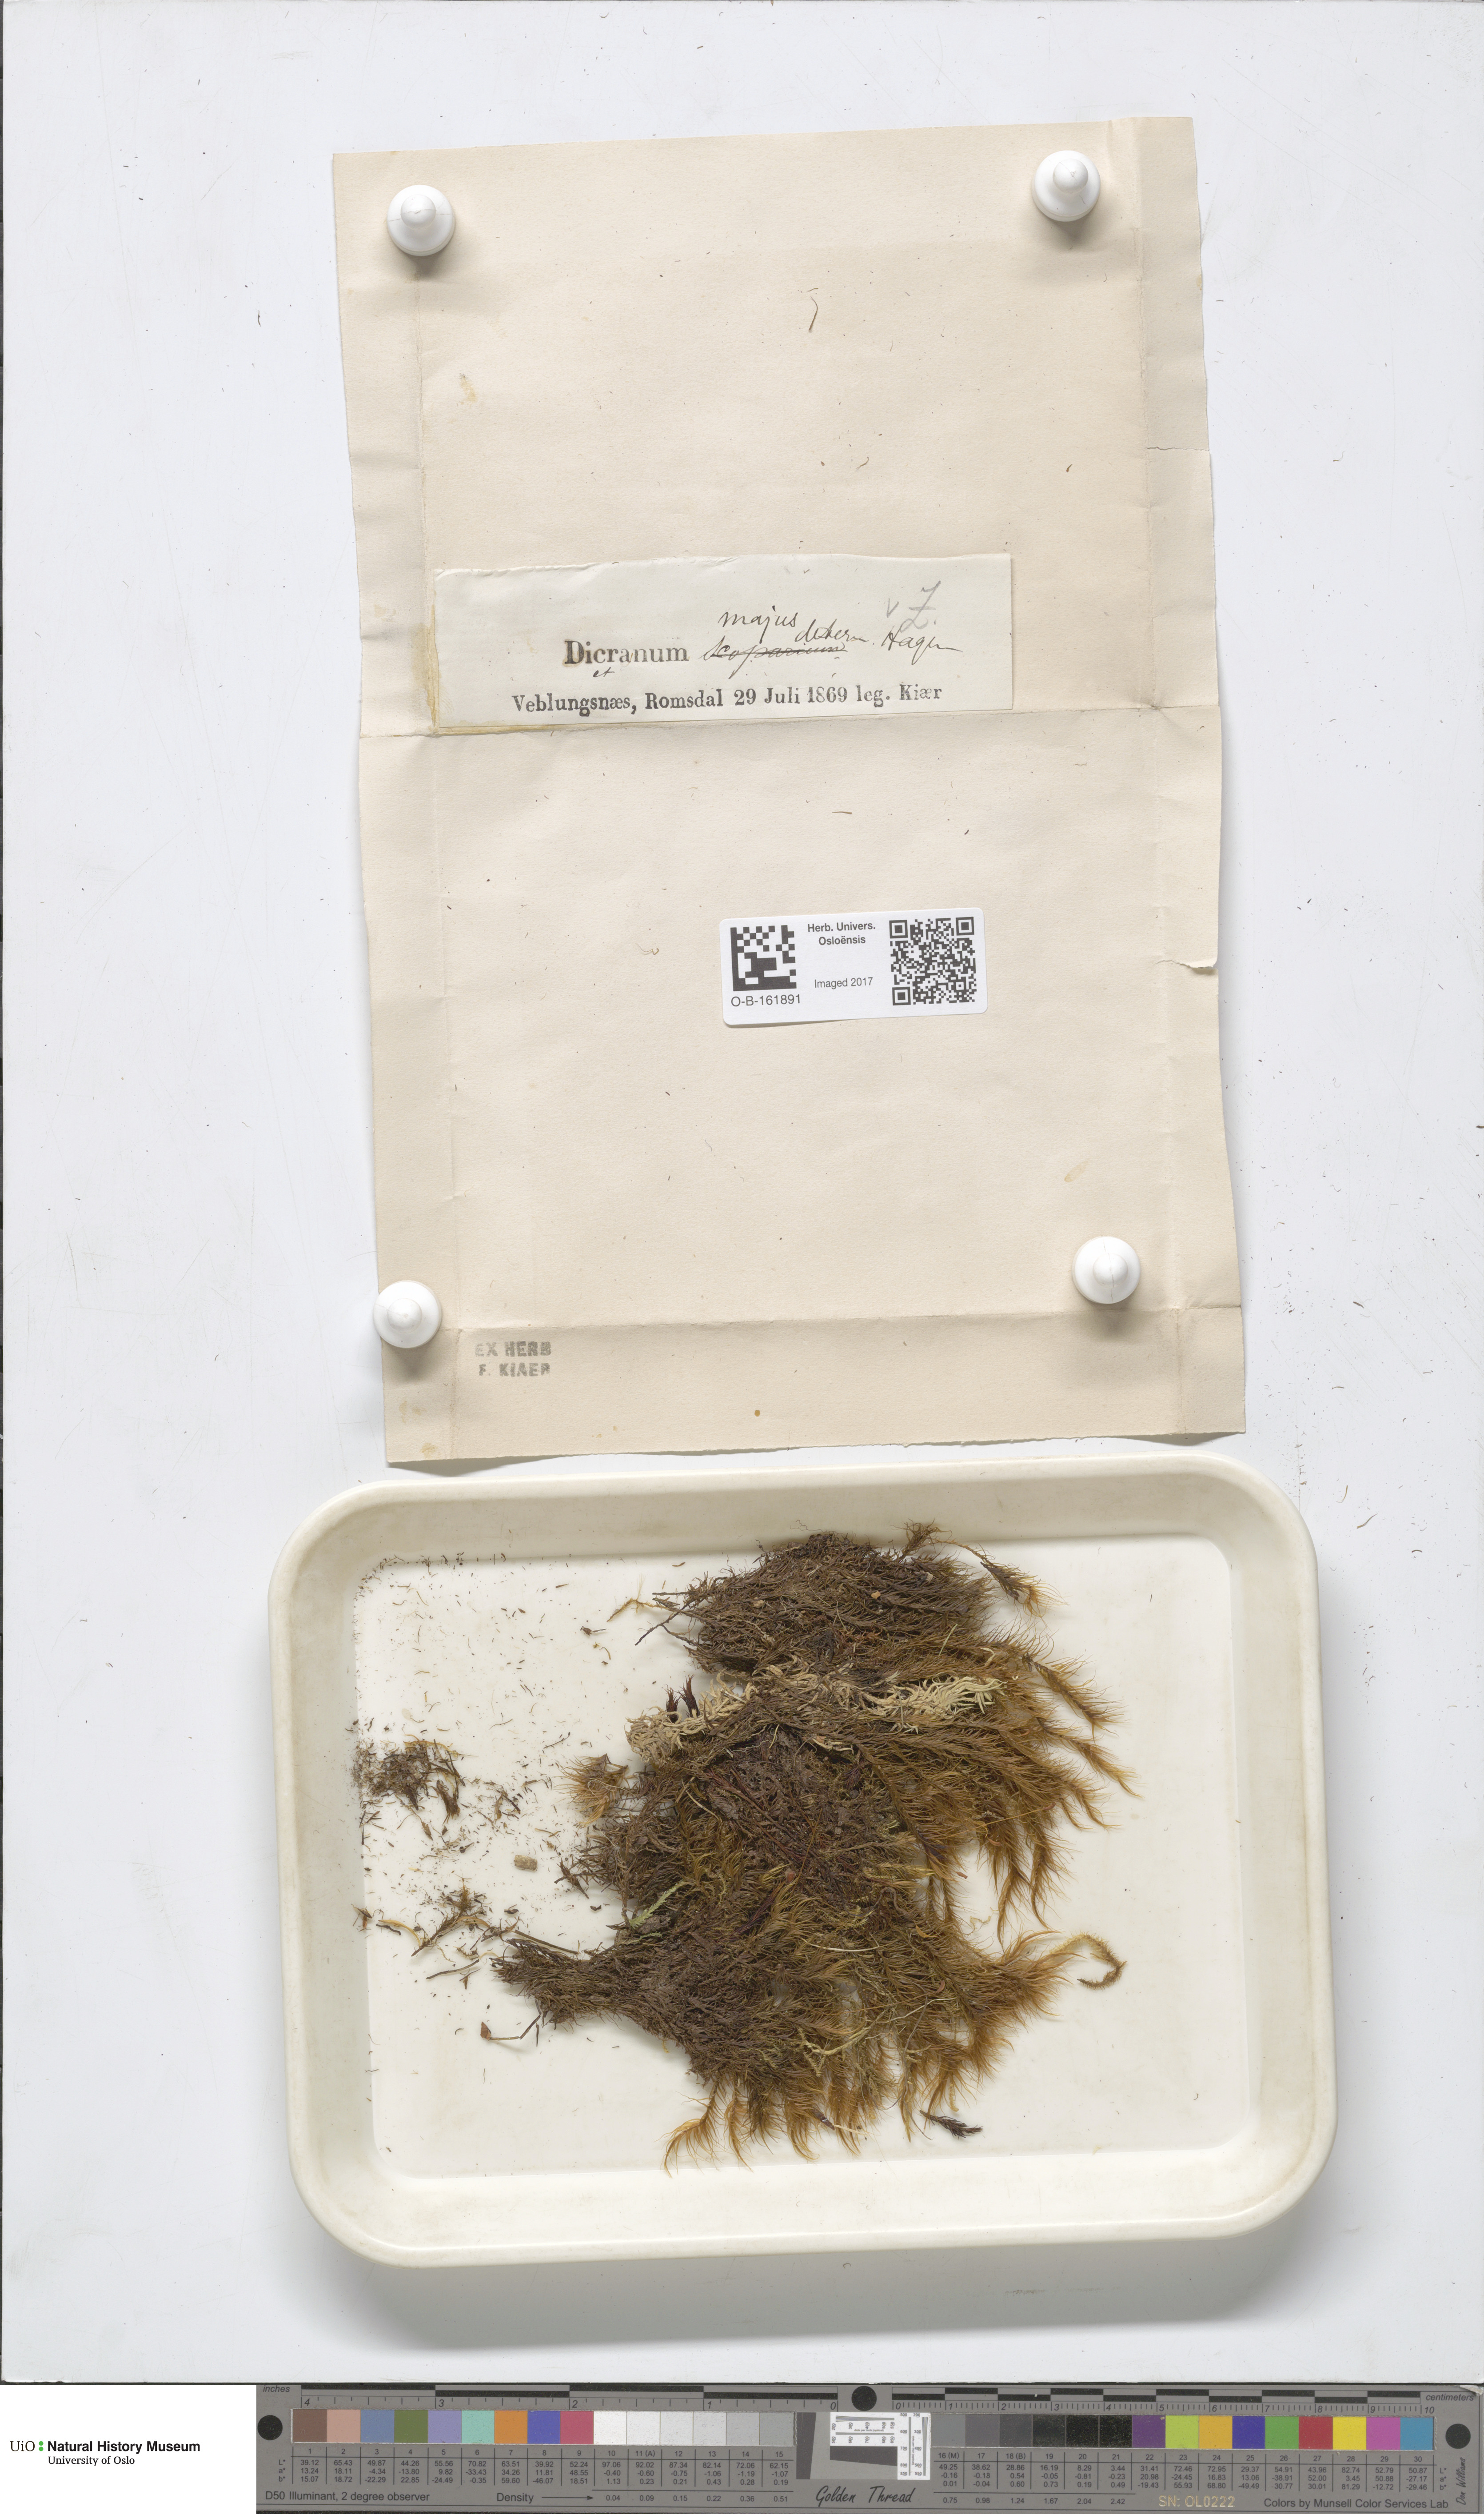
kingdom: Plantae
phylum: Bryophyta
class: Bryopsida
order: Dicranales
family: Dicranaceae
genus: Dicranum
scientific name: Dicranum majus
